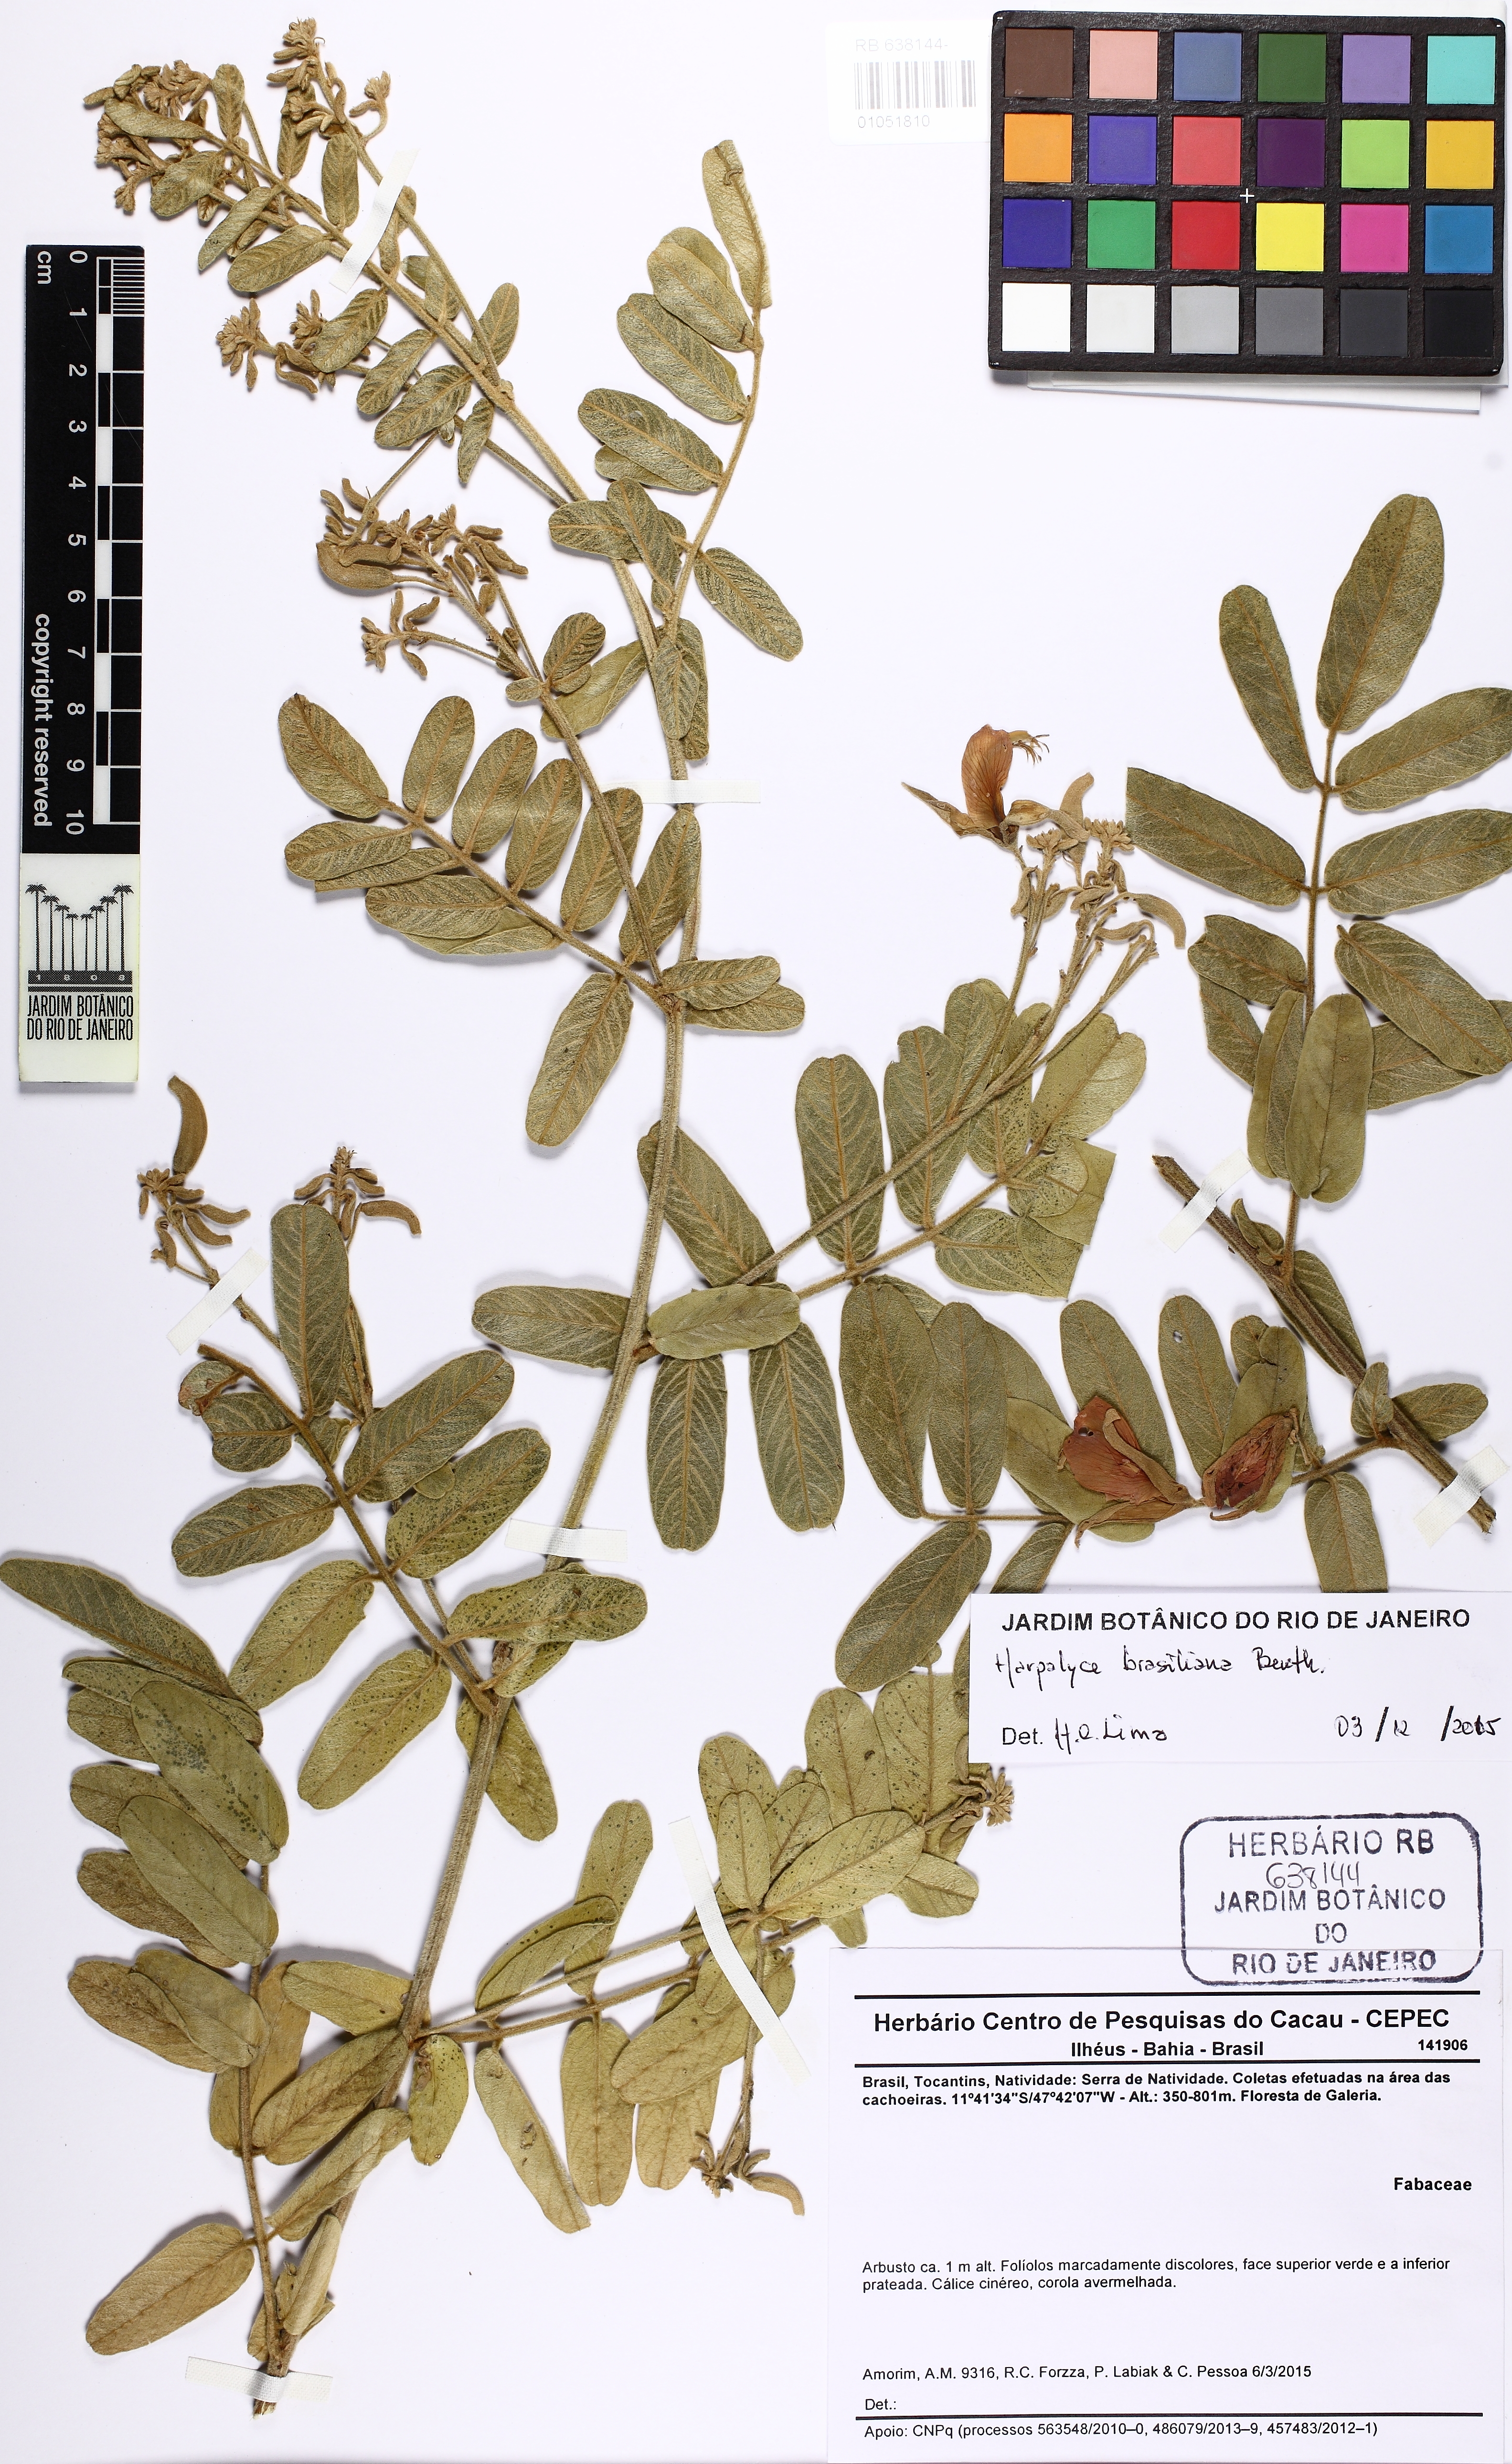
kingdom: Plantae
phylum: Tracheophyta
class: Magnoliopsida
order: Fabales
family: Fabaceae
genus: Harpalyce
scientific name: Harpalyce brasiliana
